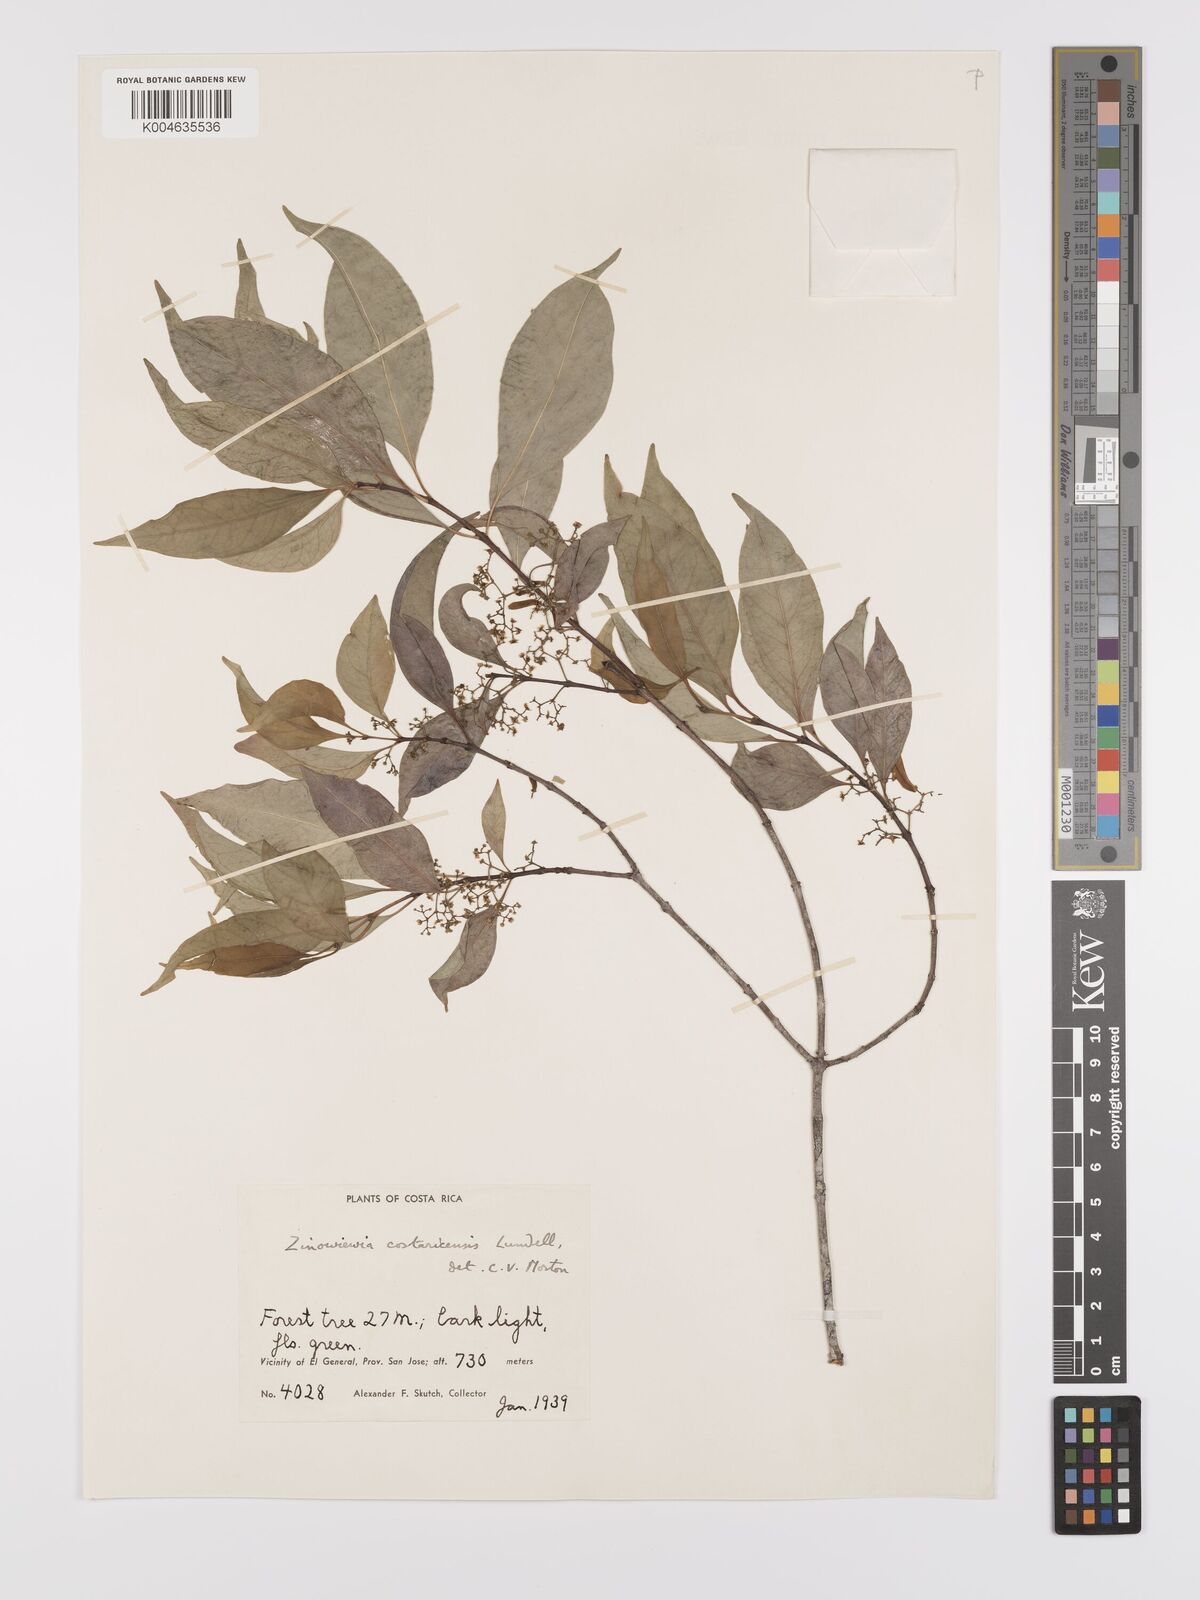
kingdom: Plantae
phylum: Tracheophyta
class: Magnoliopsida
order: Celastrales
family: Celastraceae
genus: Zinowiewia
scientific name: Zinowiewia integerrima
